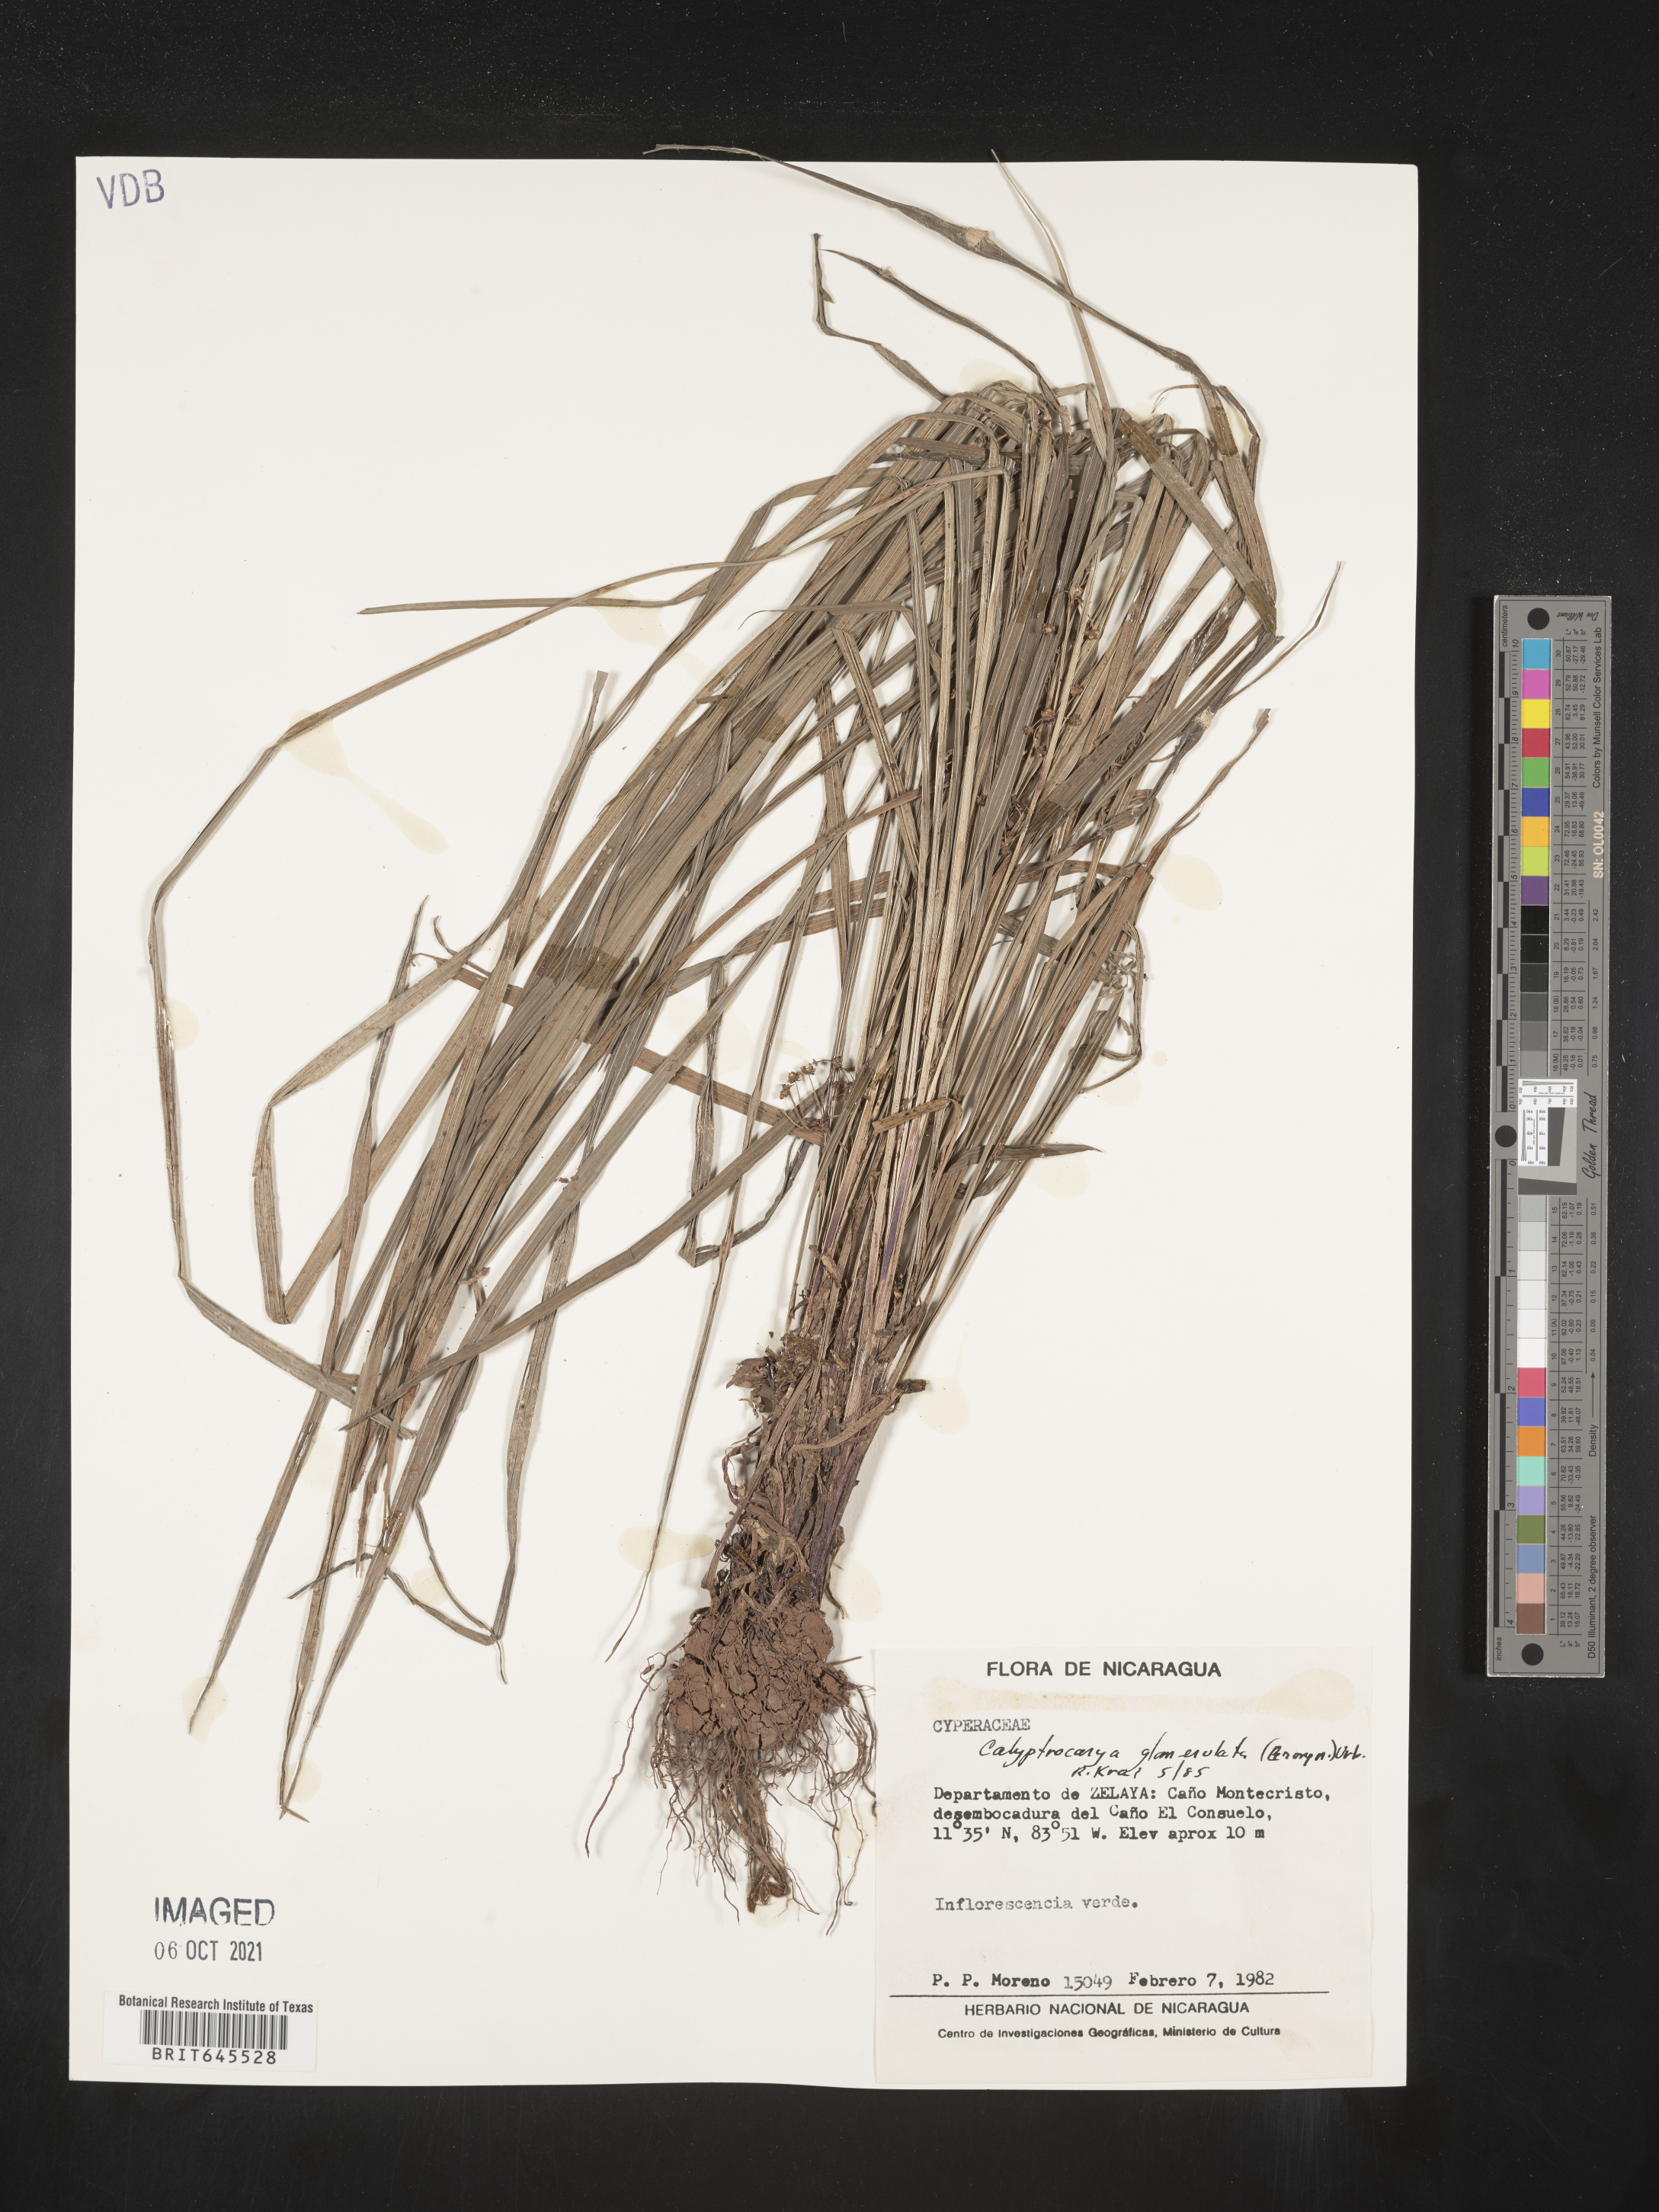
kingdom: Plantae
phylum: Tracheophyta
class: Liliopsida
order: Poales
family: Cyperaceae
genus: Calyptrocarya
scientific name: Calyptrocarya glomerulata
